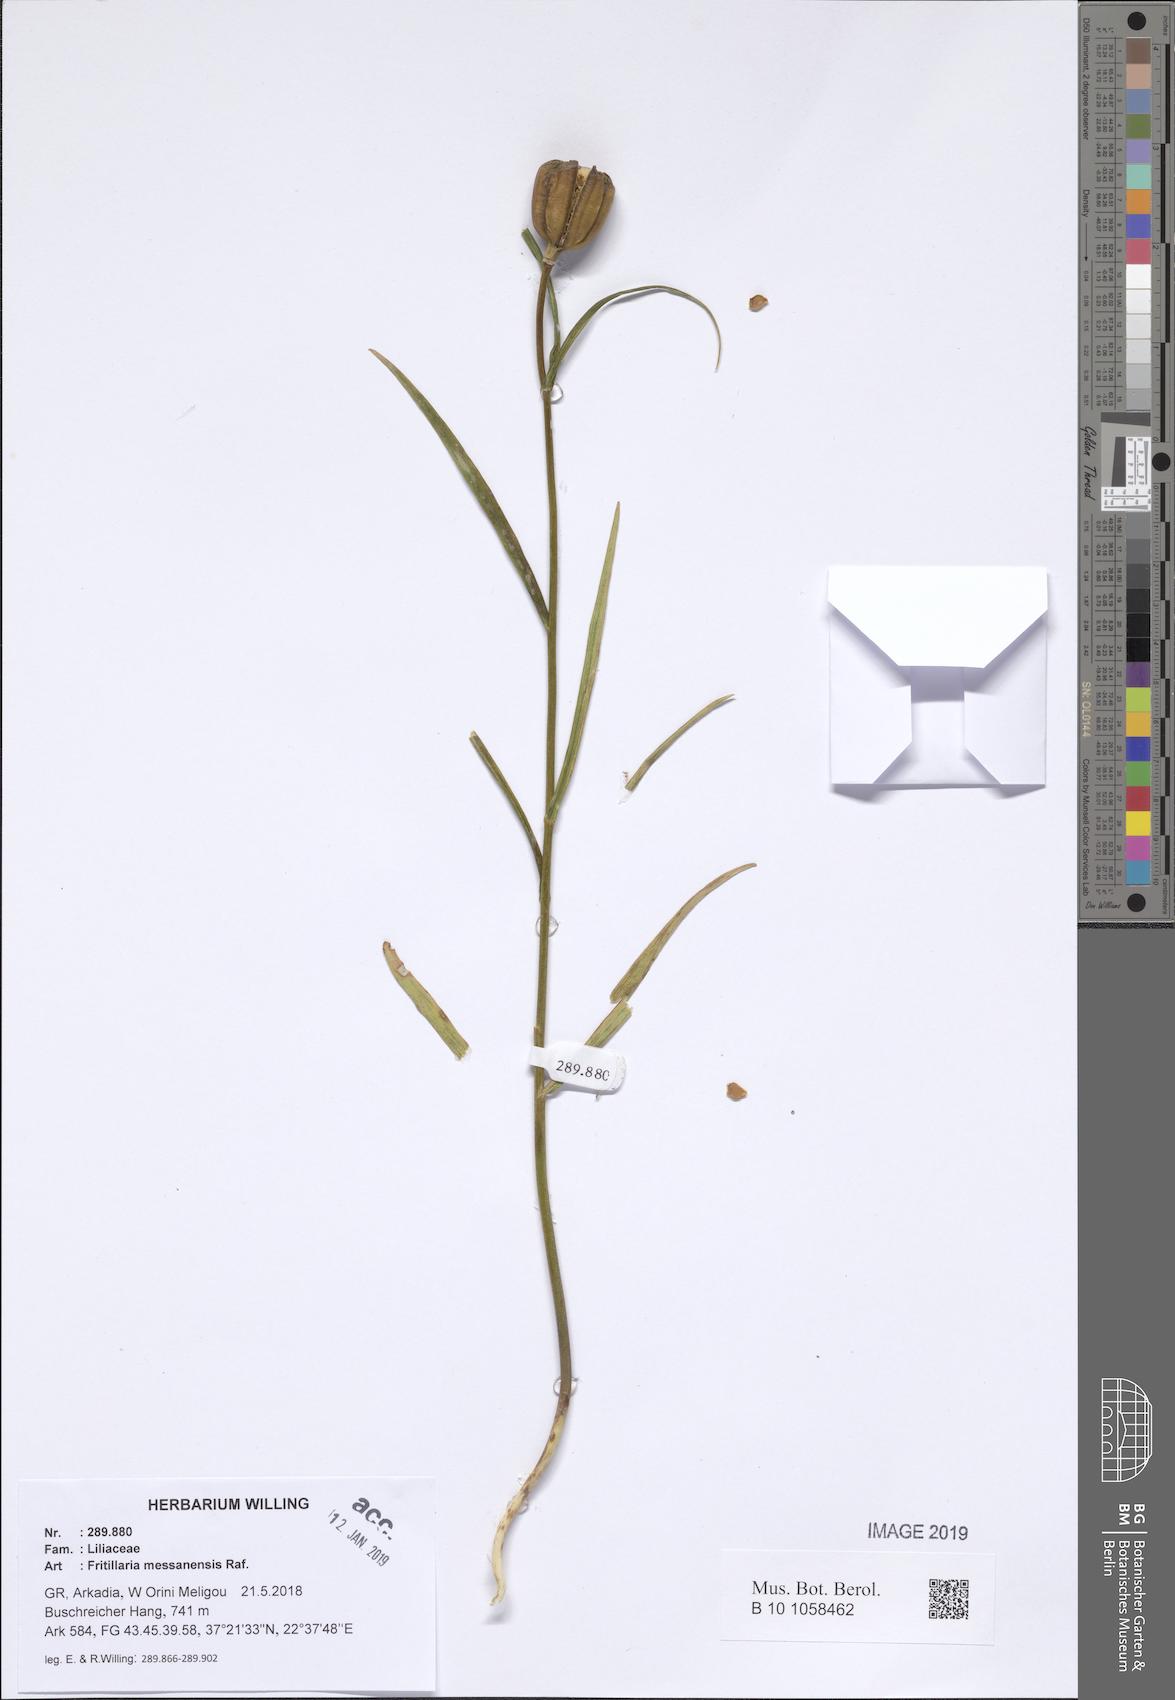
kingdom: Plantae
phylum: Tracheophyta
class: Liliopsida
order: Liliales
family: Liliaceae
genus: Fritillaria
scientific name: Fritillaria messanensis
